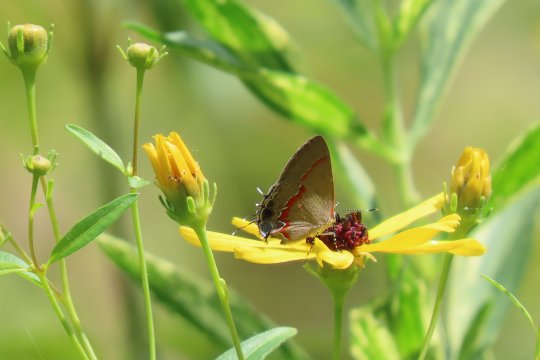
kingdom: Animalia
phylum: Arthropoda
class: Insecta
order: Lepidoptera
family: Lycaenidae
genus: Calycopis
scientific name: Calycopis cecrops
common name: Red-banded Hairstreak
